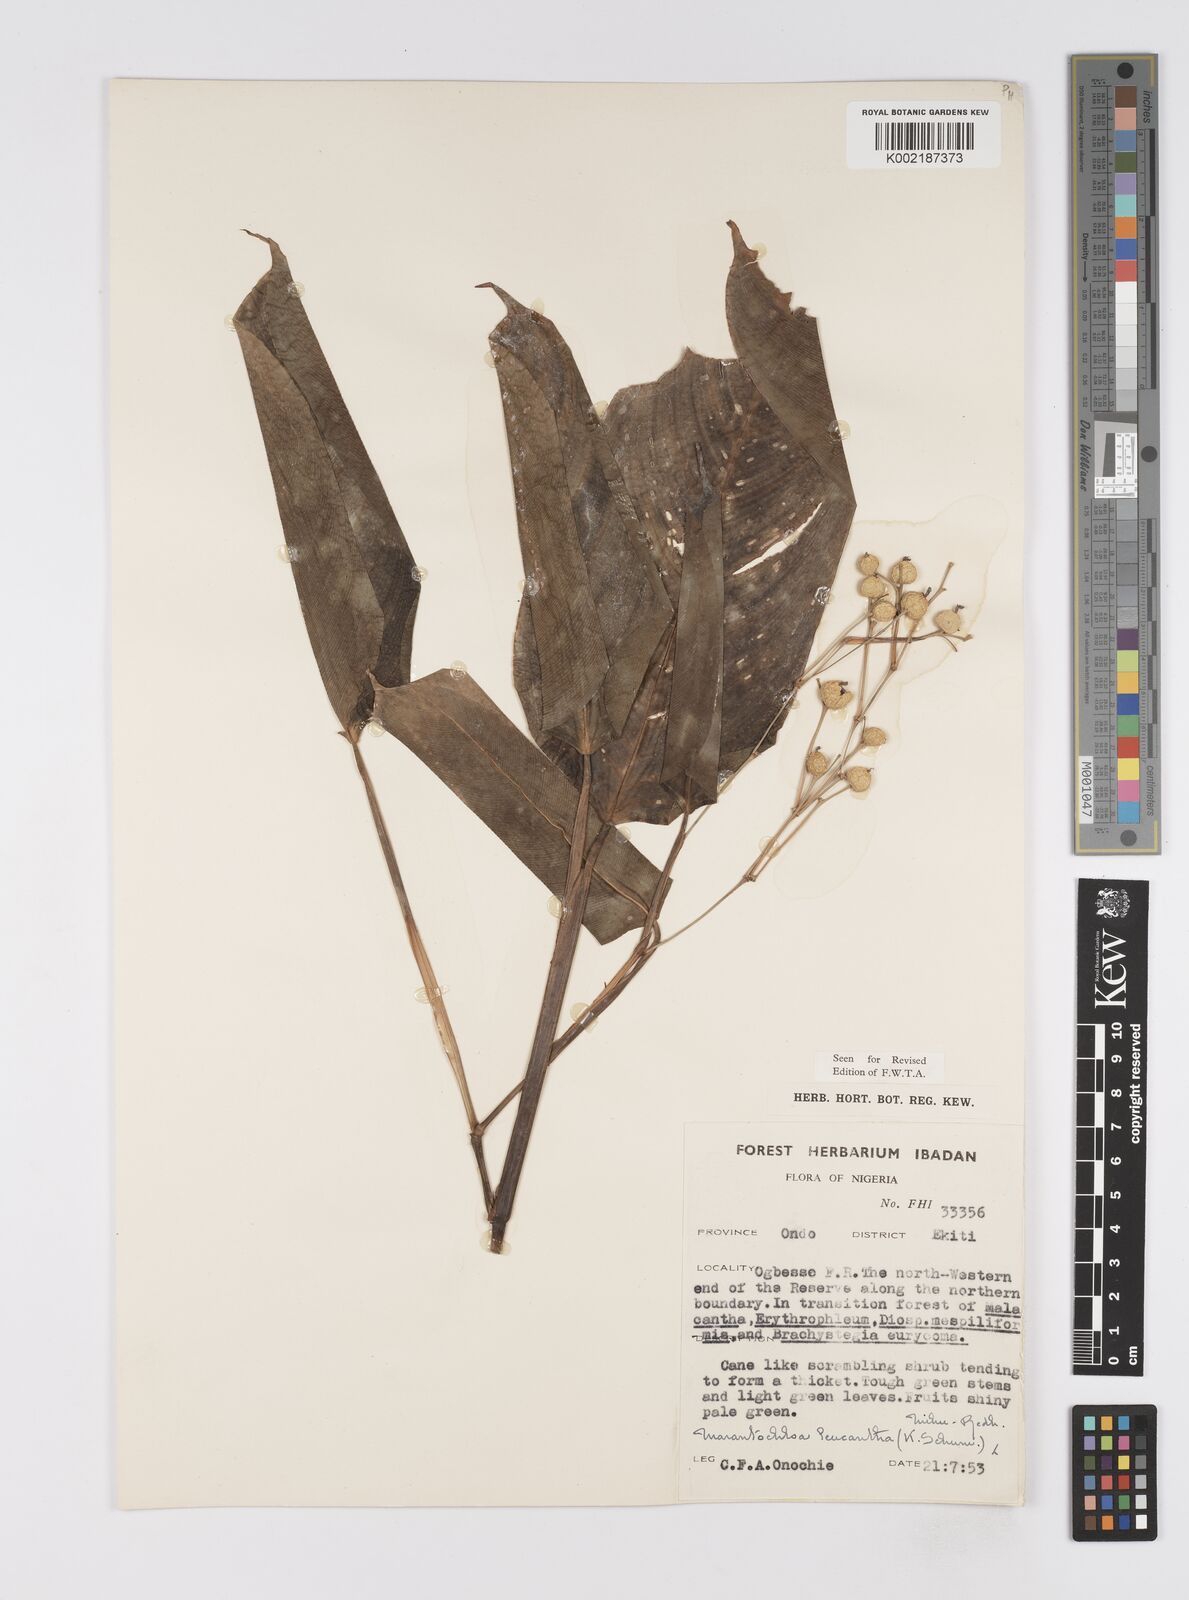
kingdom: Plantae
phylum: Tracheophyta
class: Liliopsida
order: Zingiberales
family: Marantaceae
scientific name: Marantaceae
